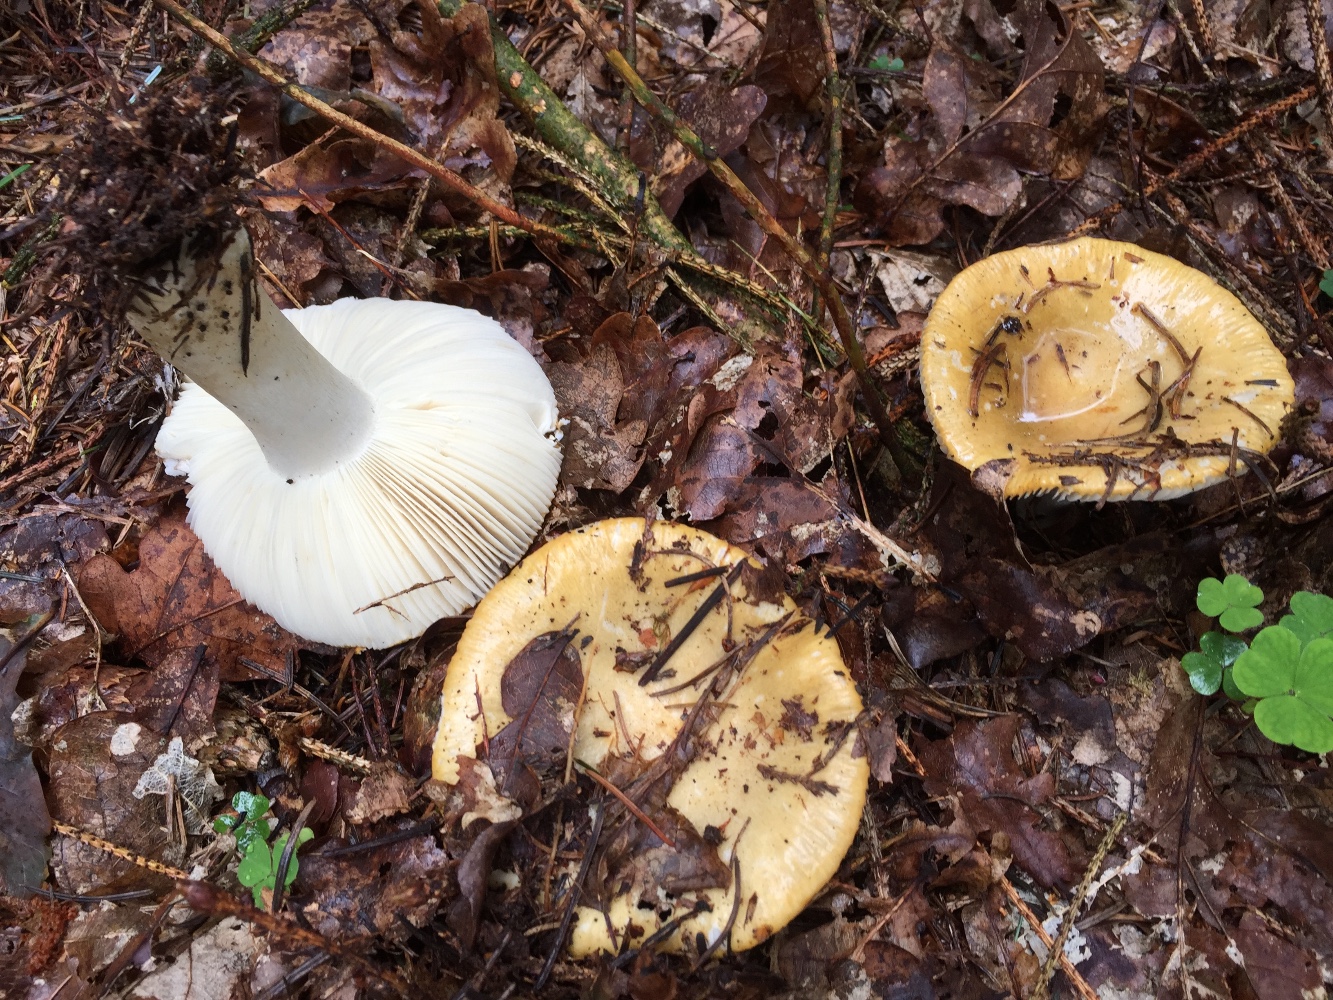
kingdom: Fungi
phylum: Basidiomycota
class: Agaricomycetes
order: Russulales
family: Russulaceae
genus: Russula
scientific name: Russula ochroleuca
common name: okkergul skørhat
